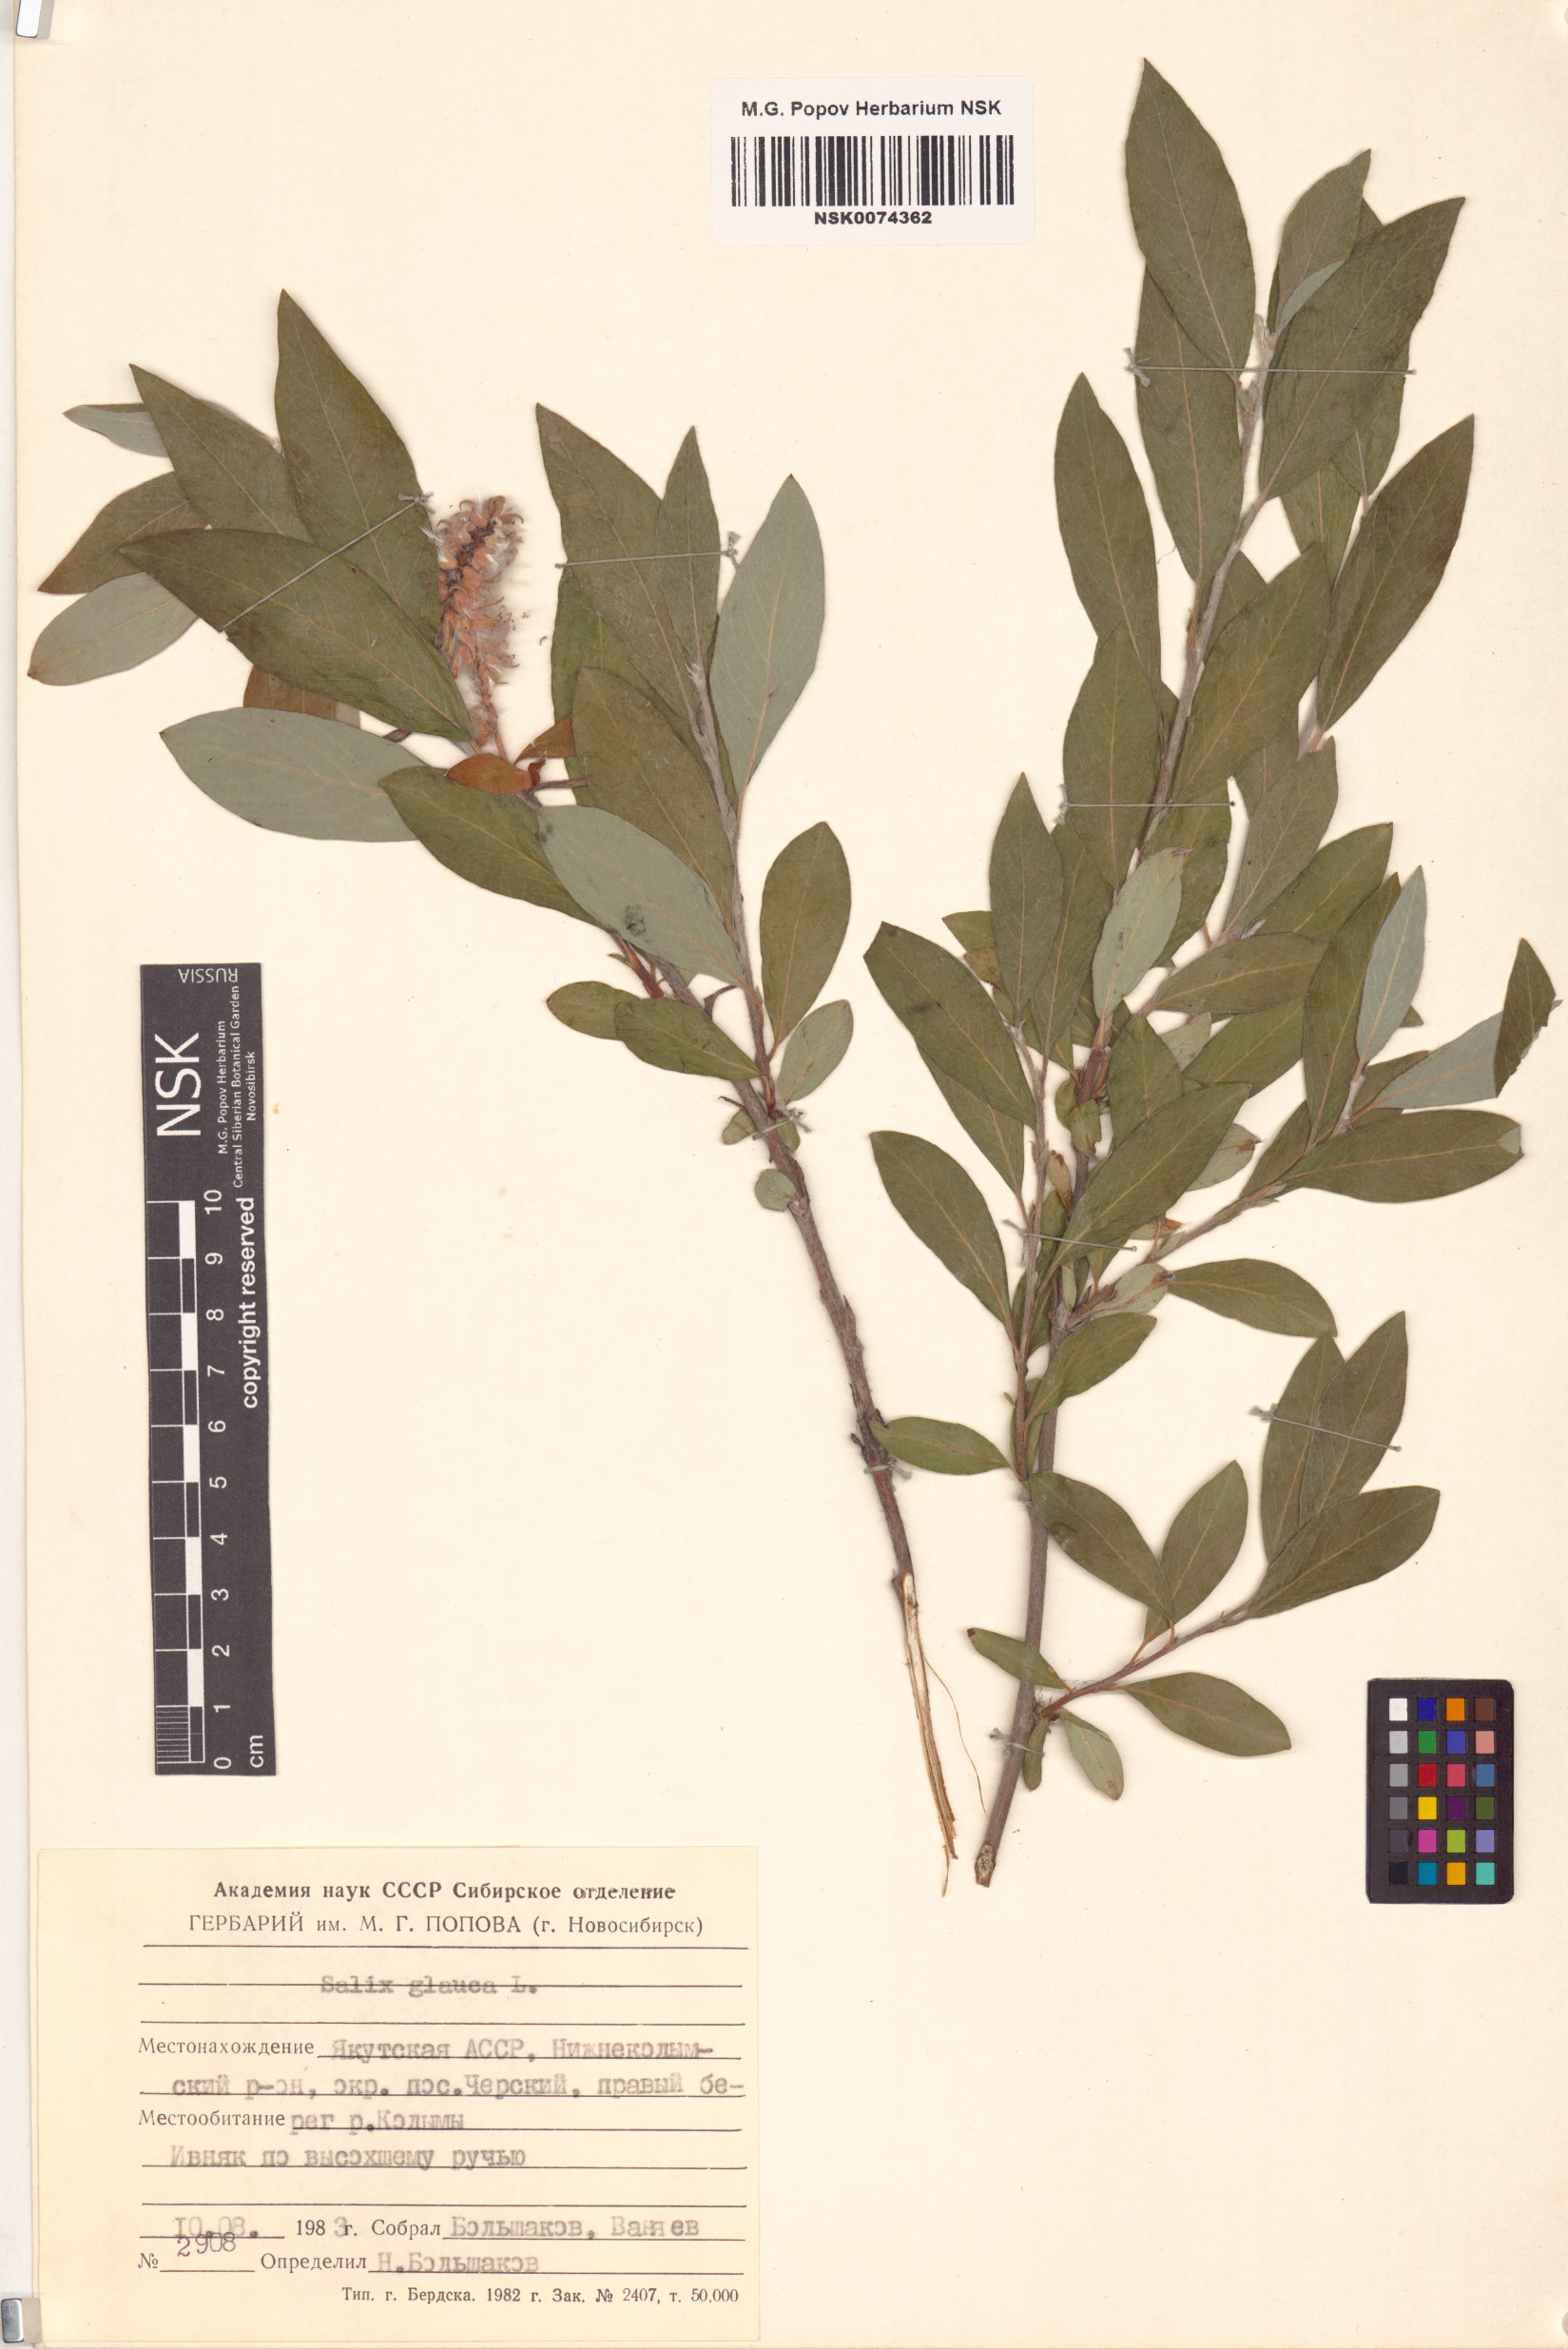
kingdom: Plantae
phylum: Tracheophyta
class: Magnoliopsida
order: Malpighiales
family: Salicaceae
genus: Salix
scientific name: Salix glauca
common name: Glaucous willow
